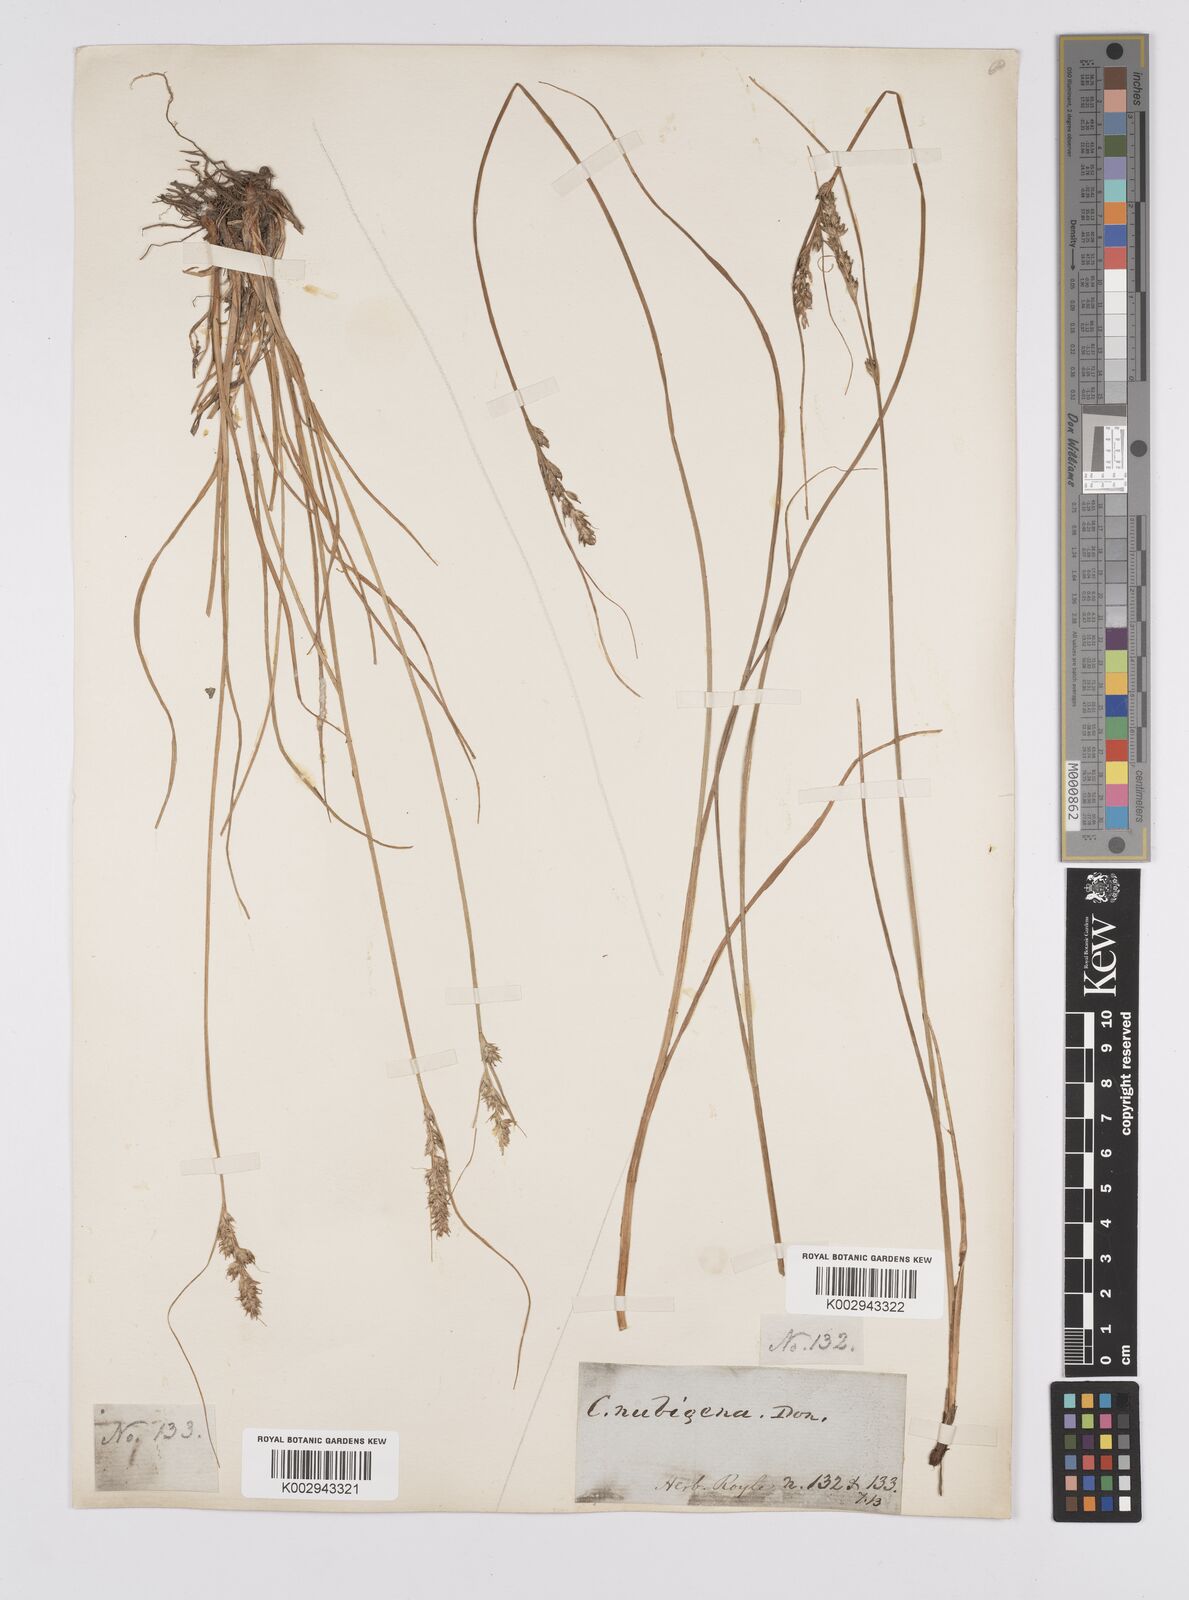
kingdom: Plantae
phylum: Tracheophyta
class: Liliopsida
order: Poales
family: Cyperaceae
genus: Carex
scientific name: Carex nubigena
